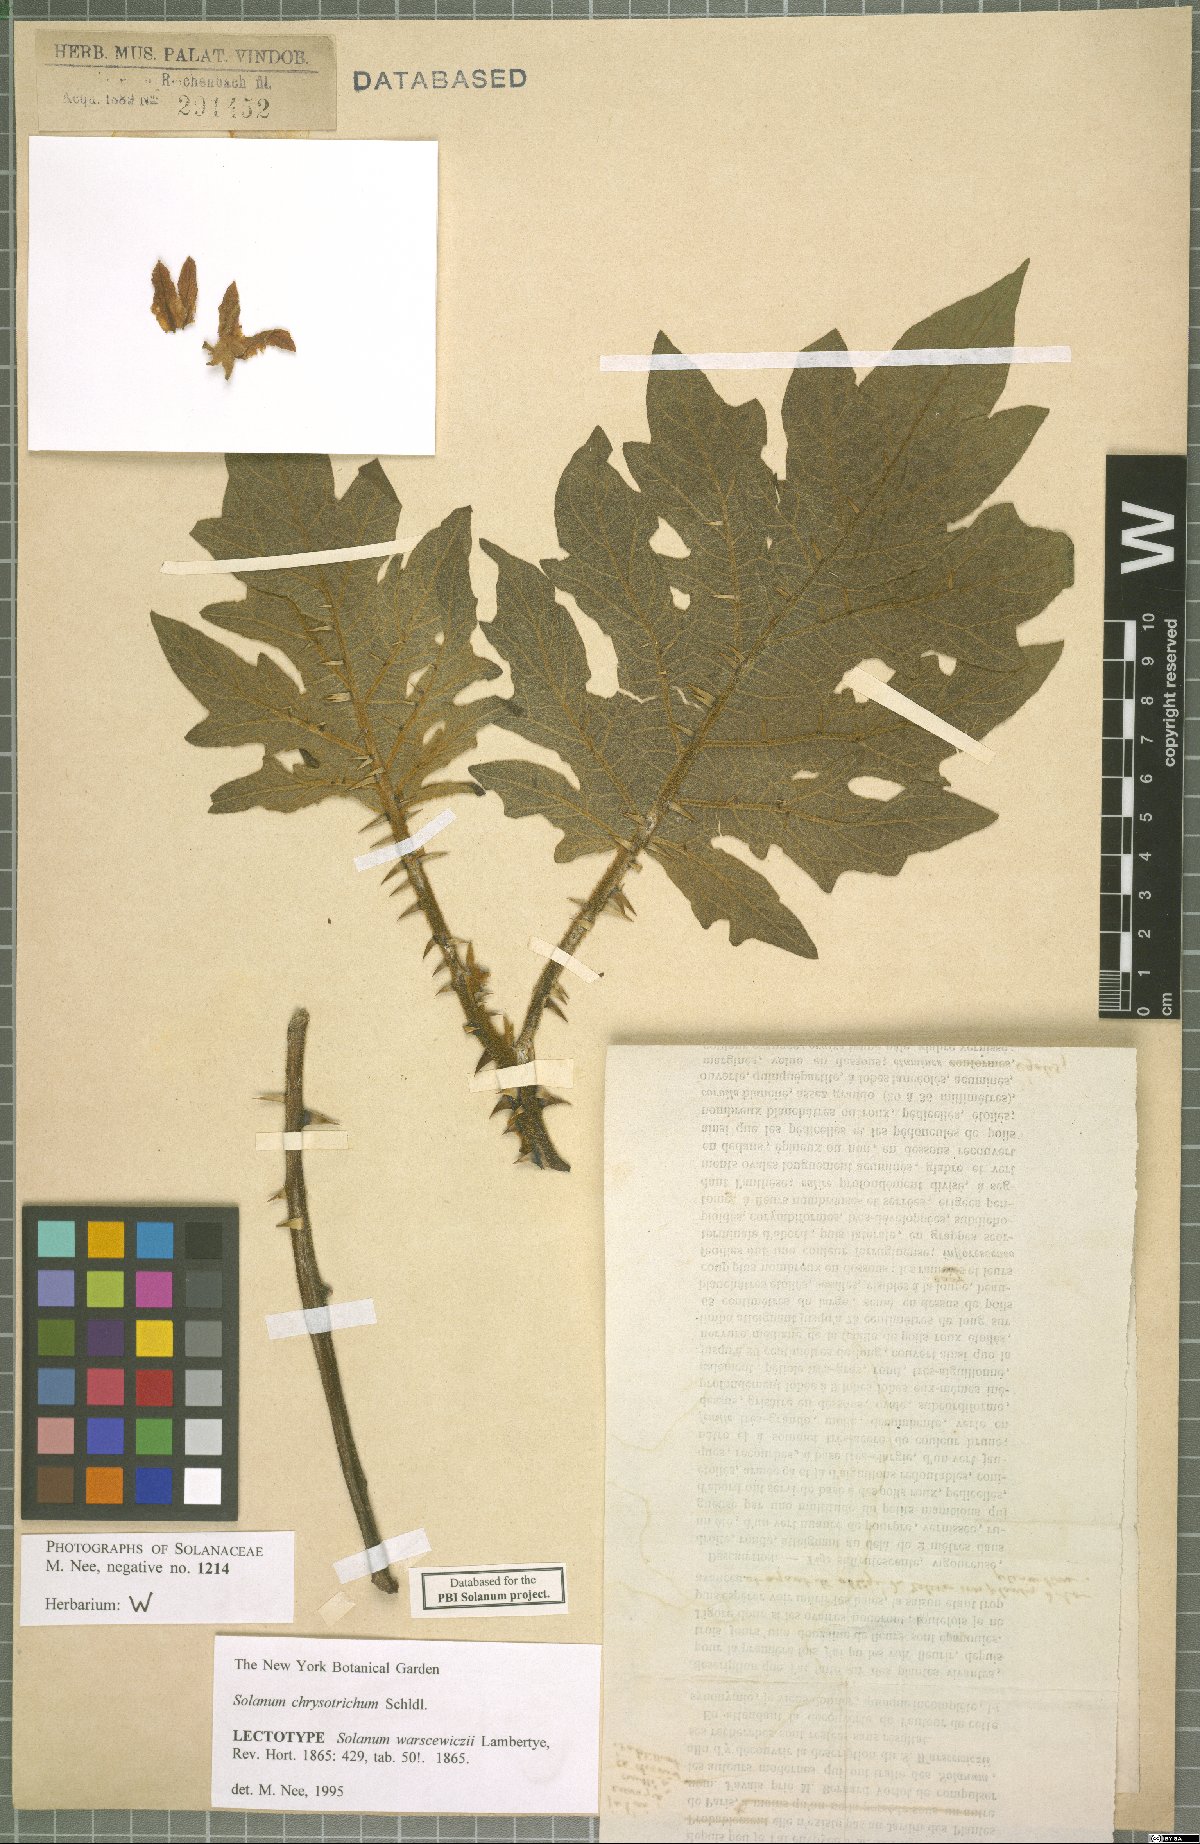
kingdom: Plantae
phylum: Tracheophyta
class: Magnoliopsida
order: Solanales
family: Solanaceae
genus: Solanum
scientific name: Solanum chrysotrichum
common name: Nightshade
